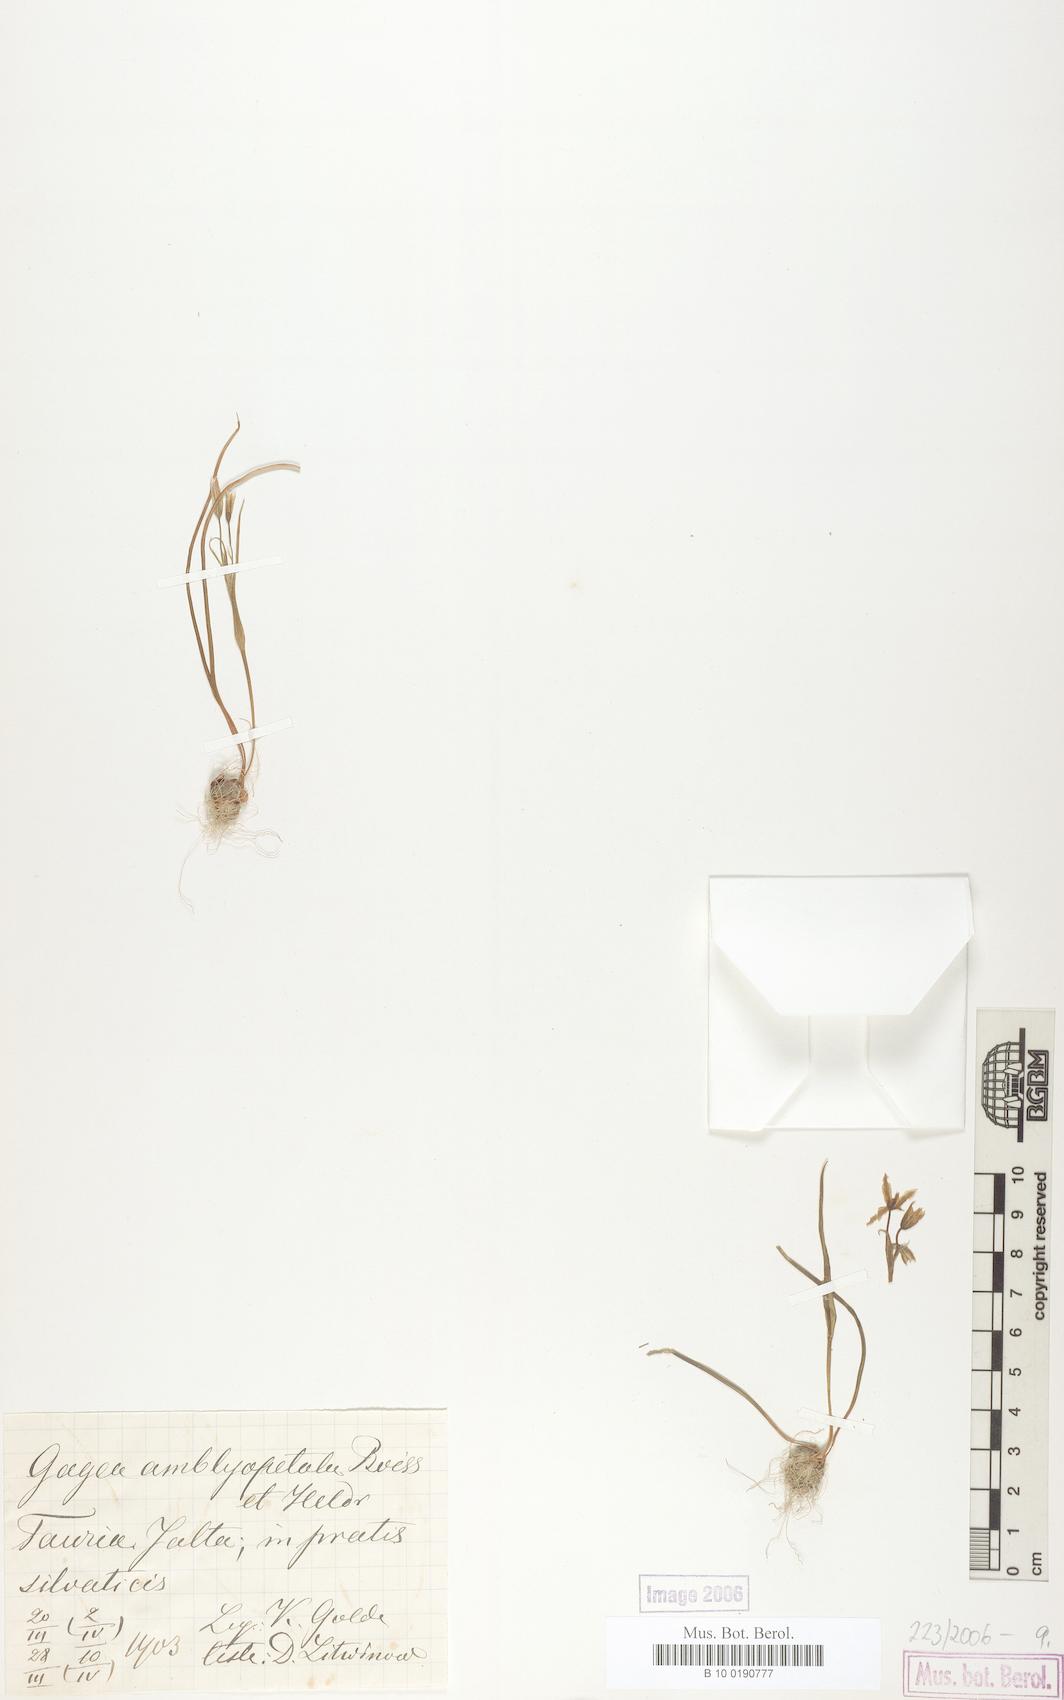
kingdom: Plantae
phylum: Tracheophyta
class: Liliopsida
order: Liliales
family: Liliaceae
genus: Gagea
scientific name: Gagea amblyopetala
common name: Blunt-flowered gagea
